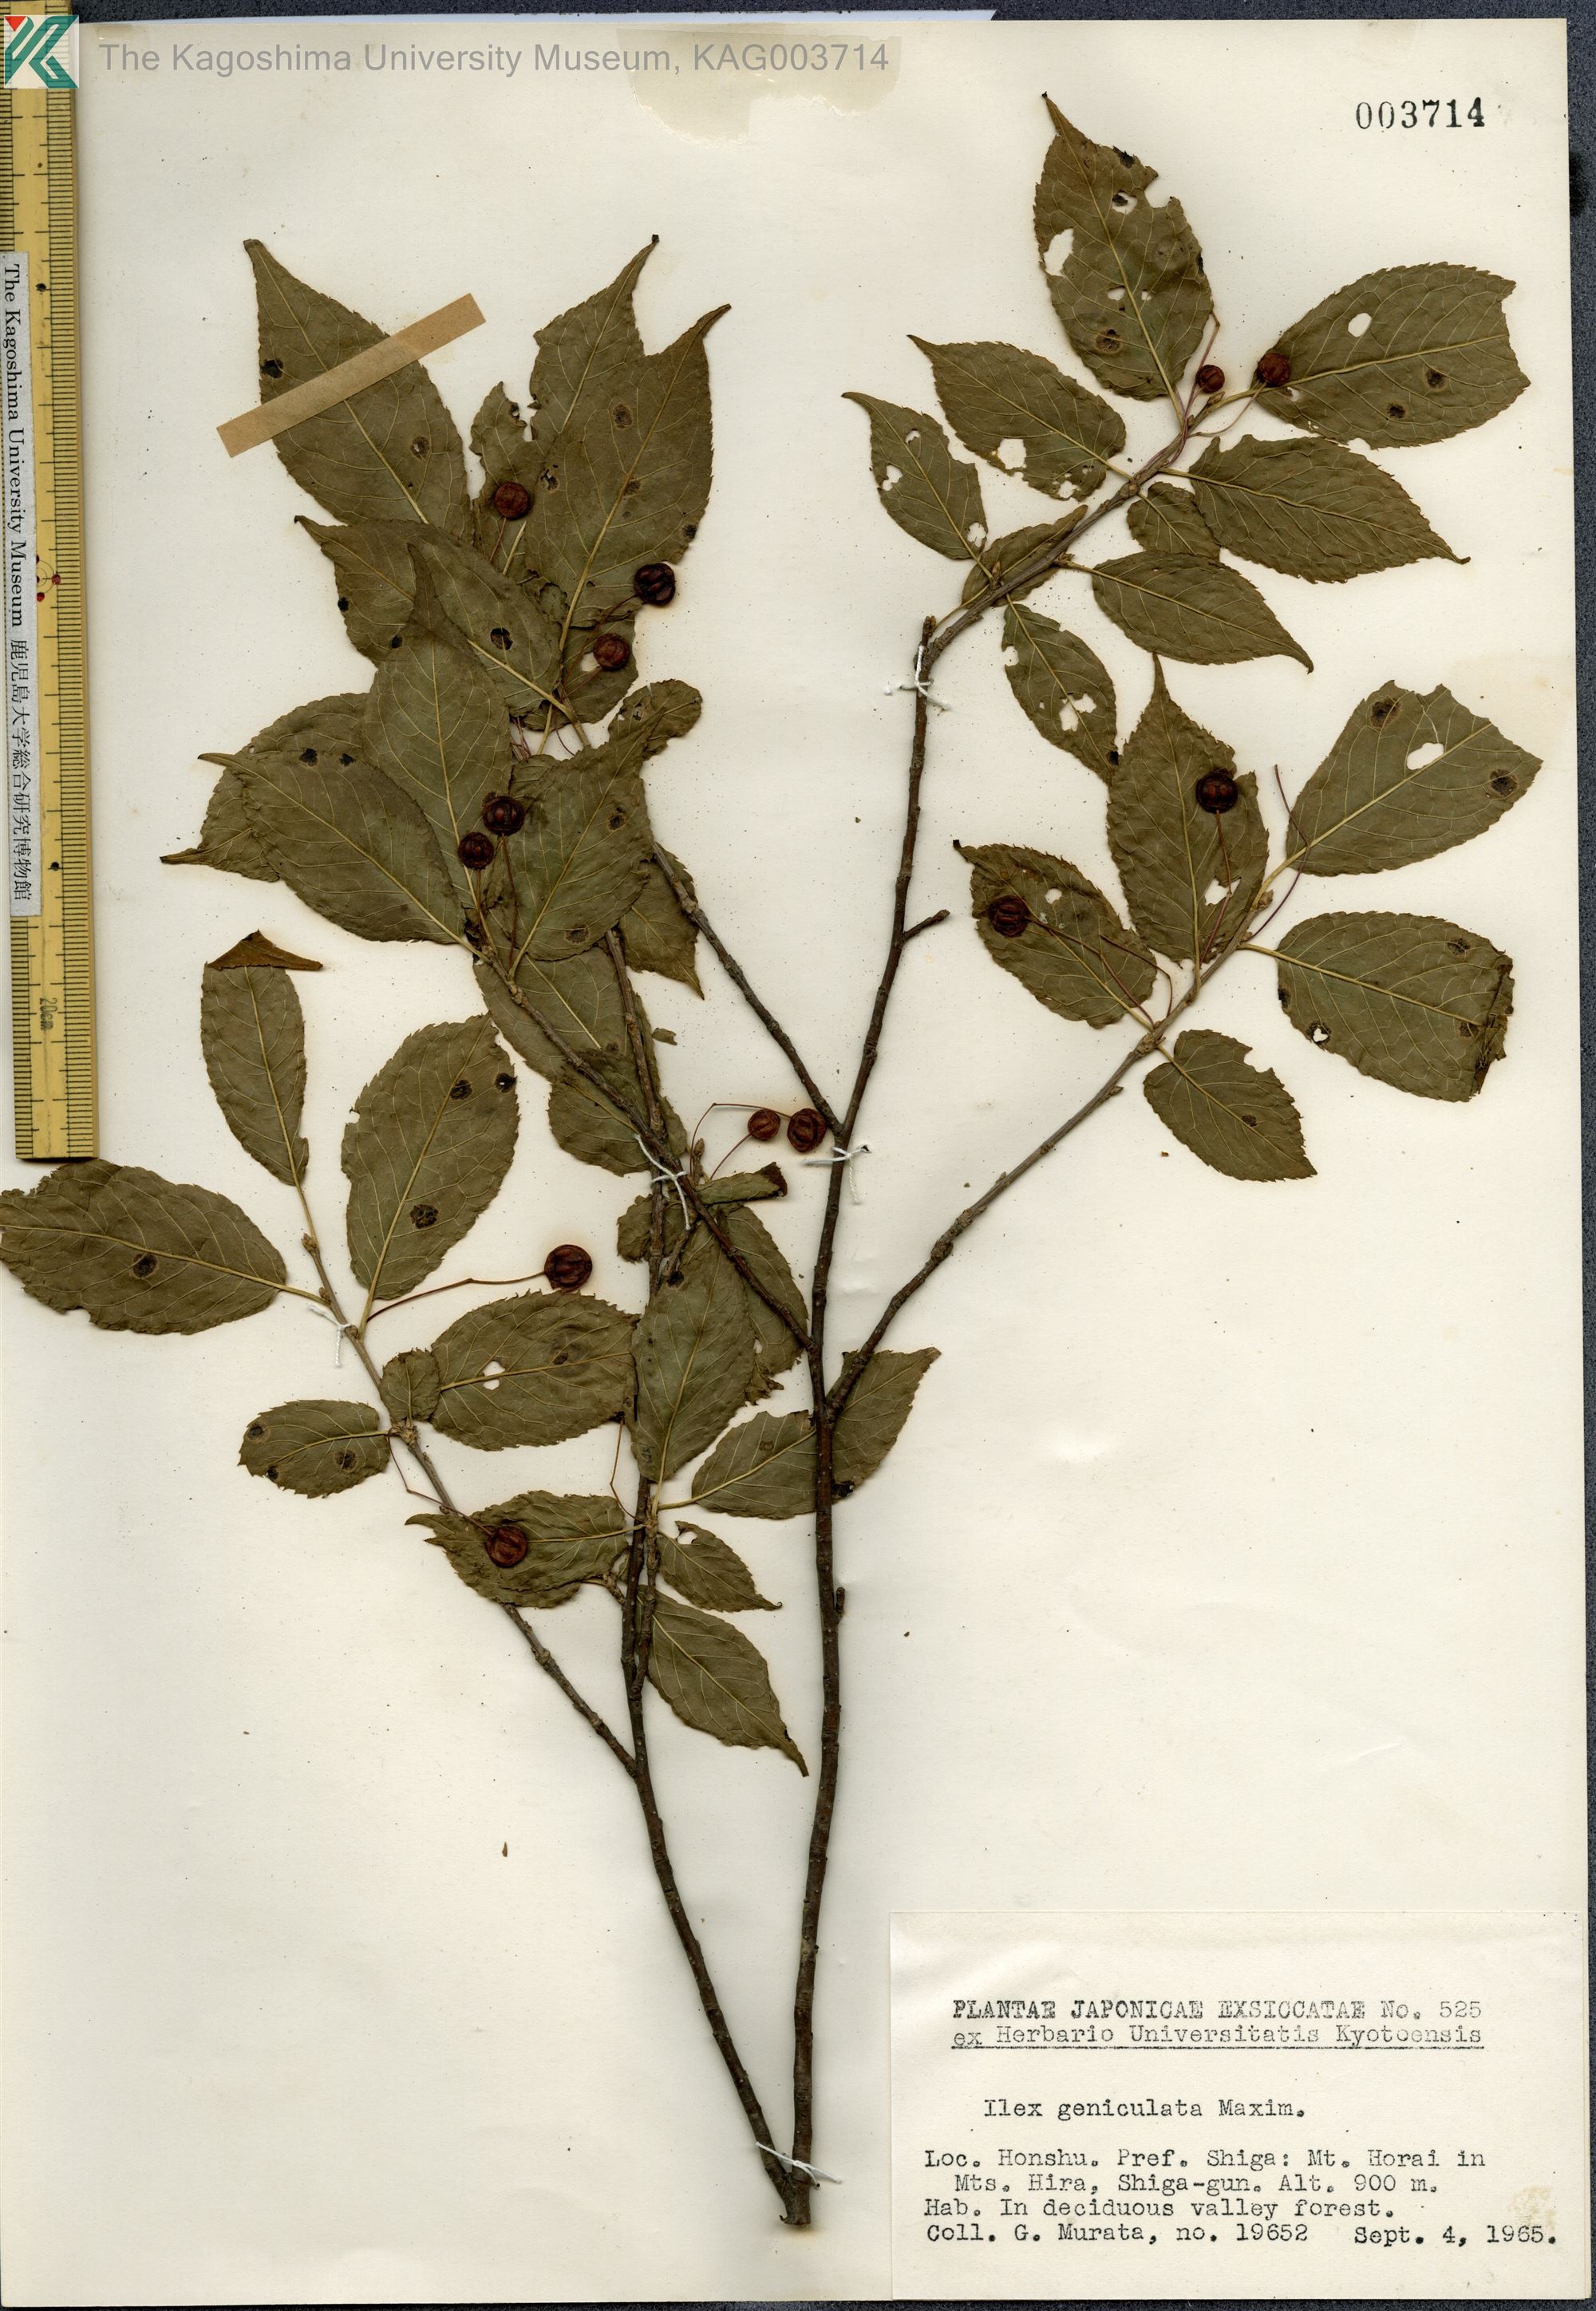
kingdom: Plantae
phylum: Tracheophyta
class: Magnoliopsida
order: Aquifoliales
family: Aquifoliaceae
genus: Ilex
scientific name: Ilex geniculata
